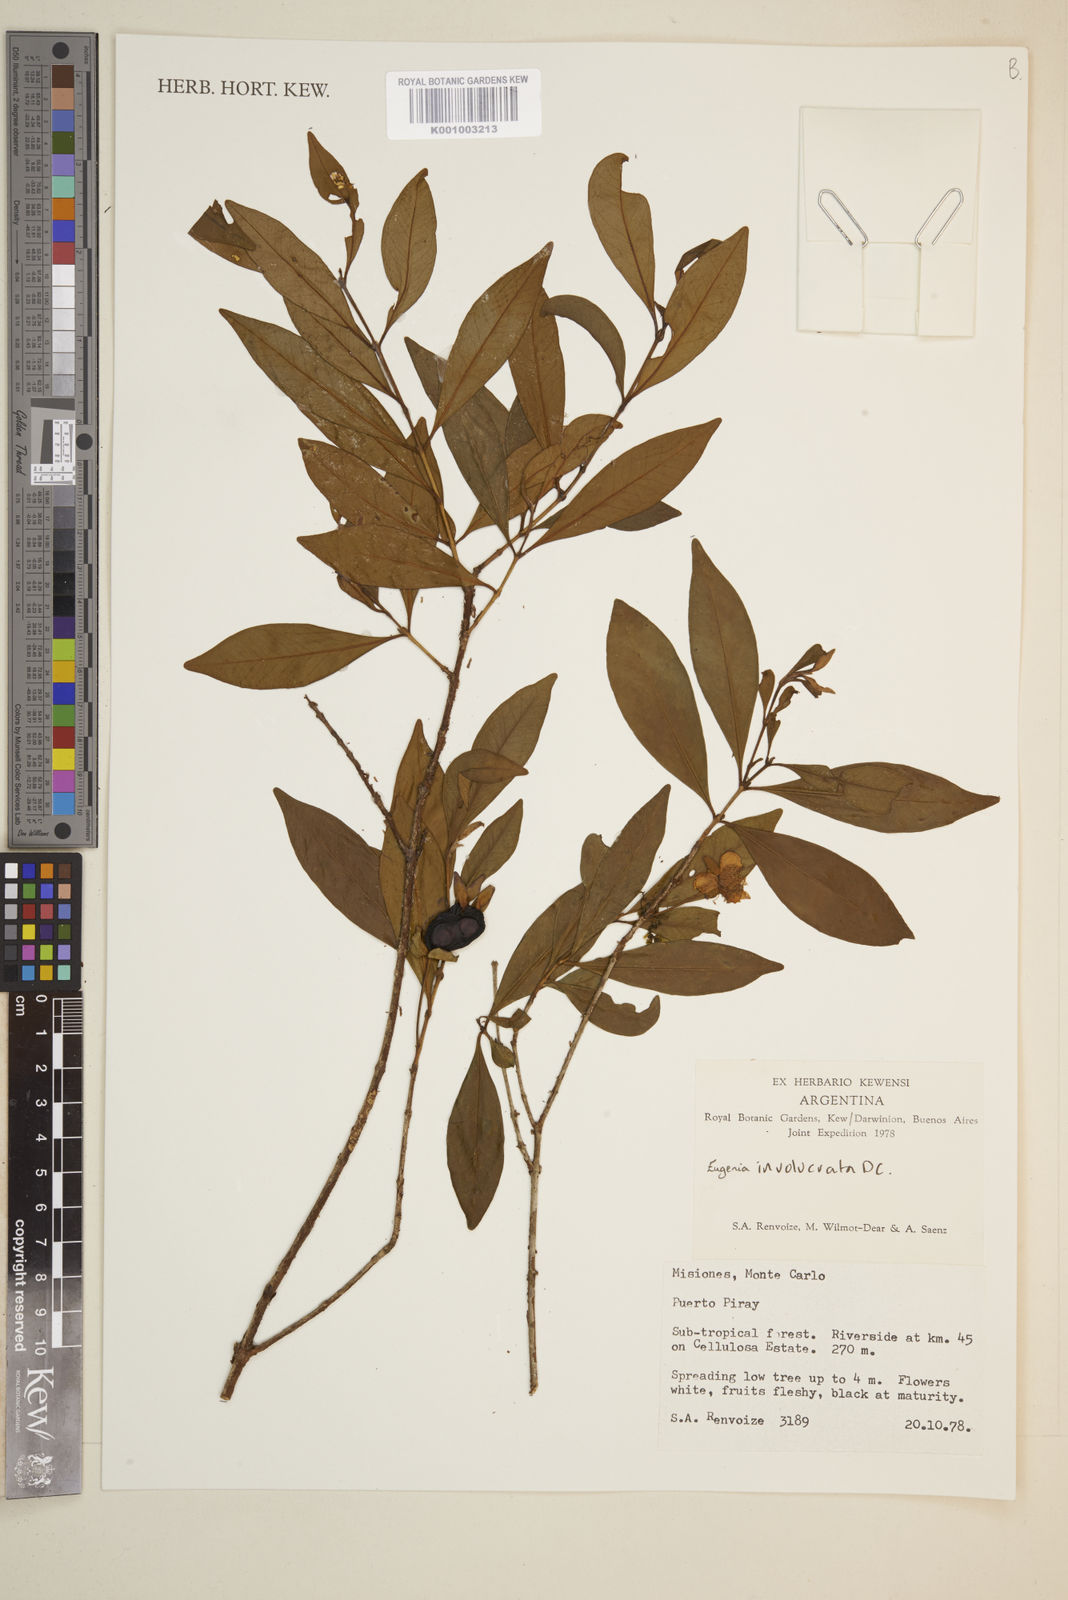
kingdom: Plantae
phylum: Tracheophyta
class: Magnoliopsida
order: Myrtales
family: Myrtaceae
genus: Eugenia
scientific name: Eugenia involucrata
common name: Cherry-of-the-rio grande
